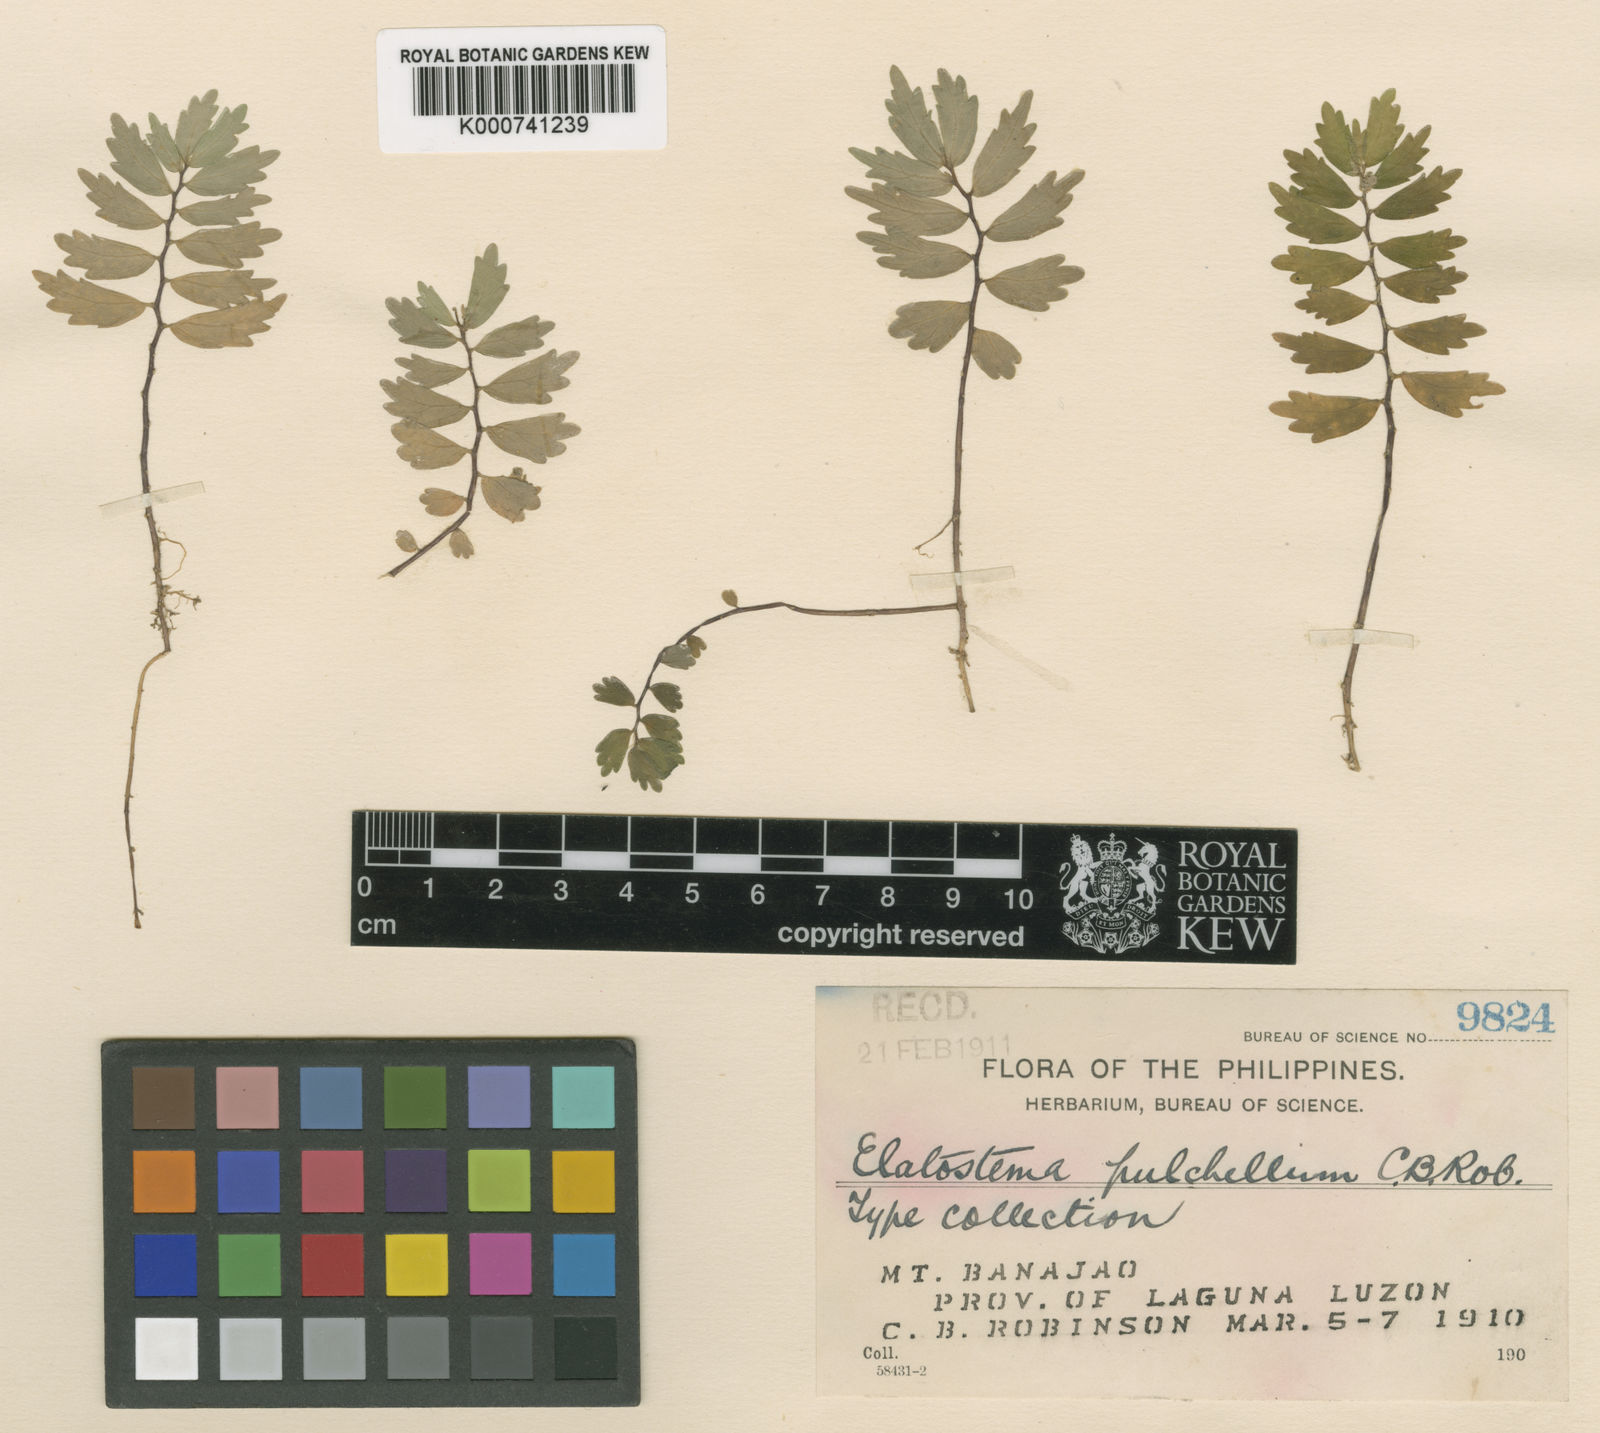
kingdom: Plantae
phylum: Tracheophyta
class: Magnoliopsida
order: Rosales
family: Urticaceae
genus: Elatostema
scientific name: Elatostema pulchellum
